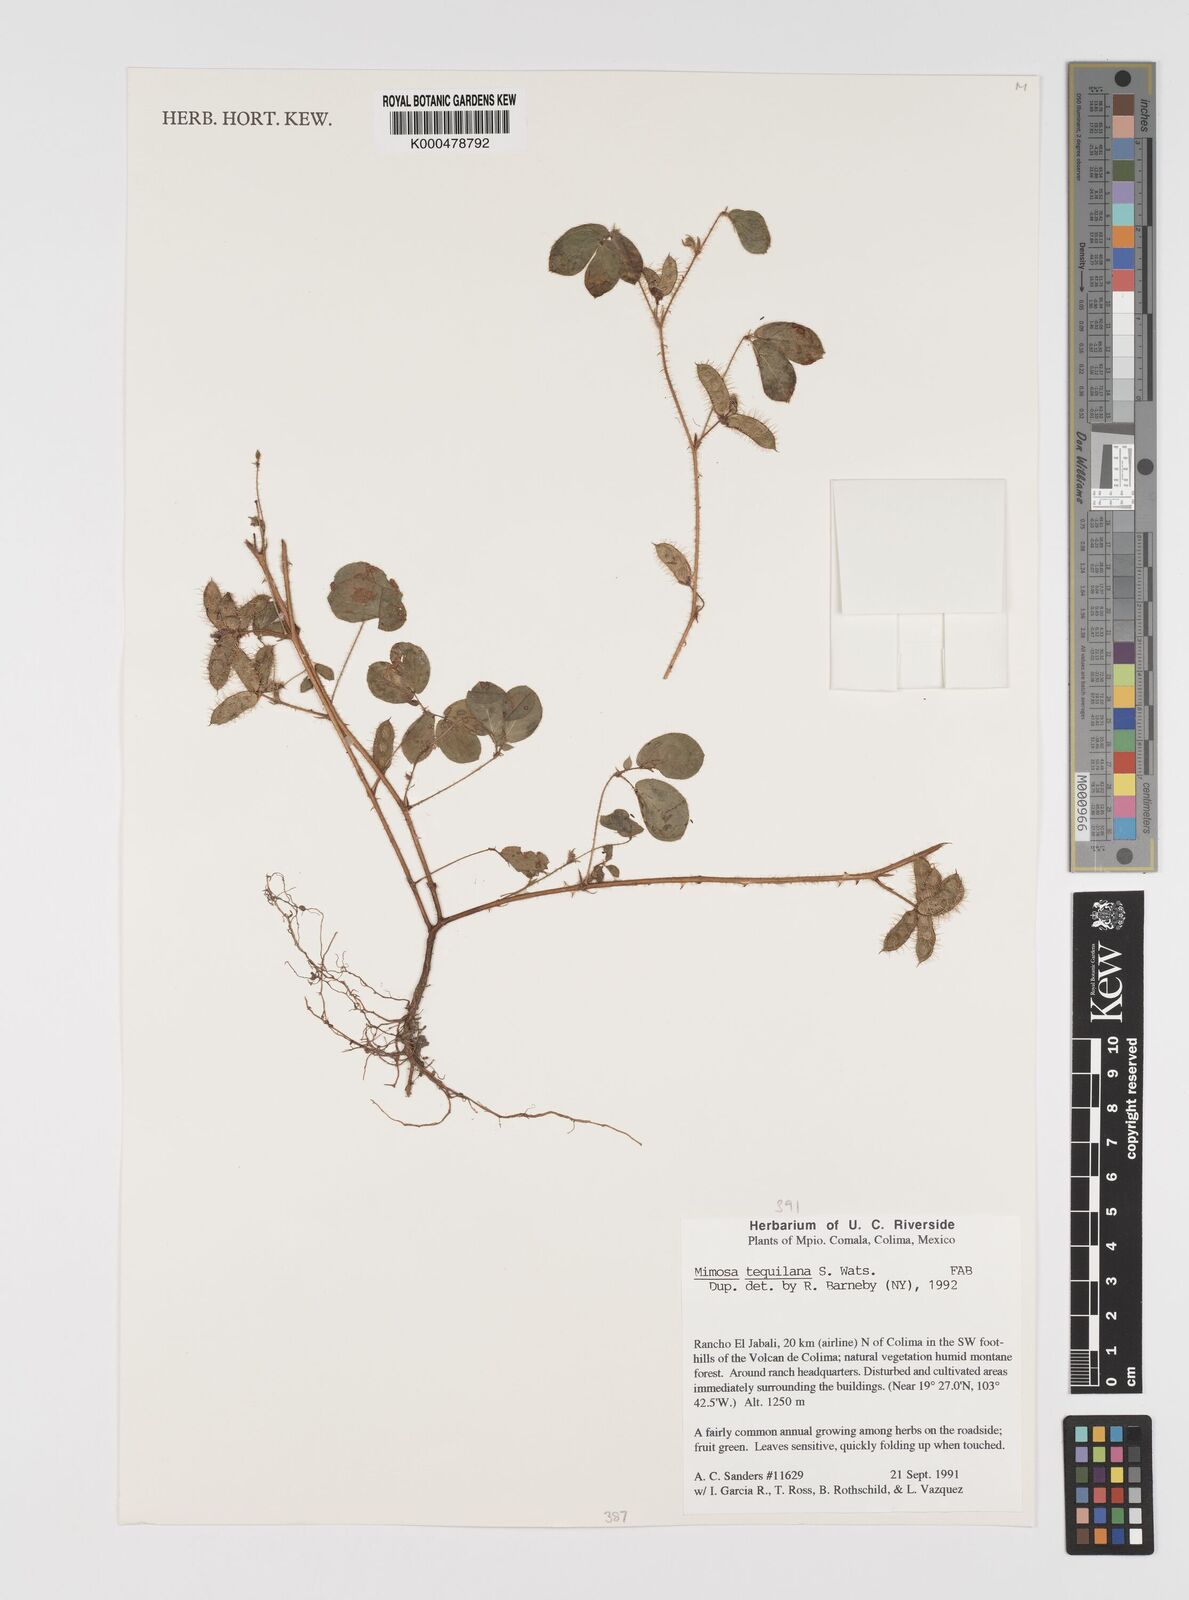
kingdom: Plantae
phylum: Tracheophyta
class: Magnoliopsida
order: Fabales
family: Fabaceae
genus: Mimosa
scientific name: Mimosa tequilana
